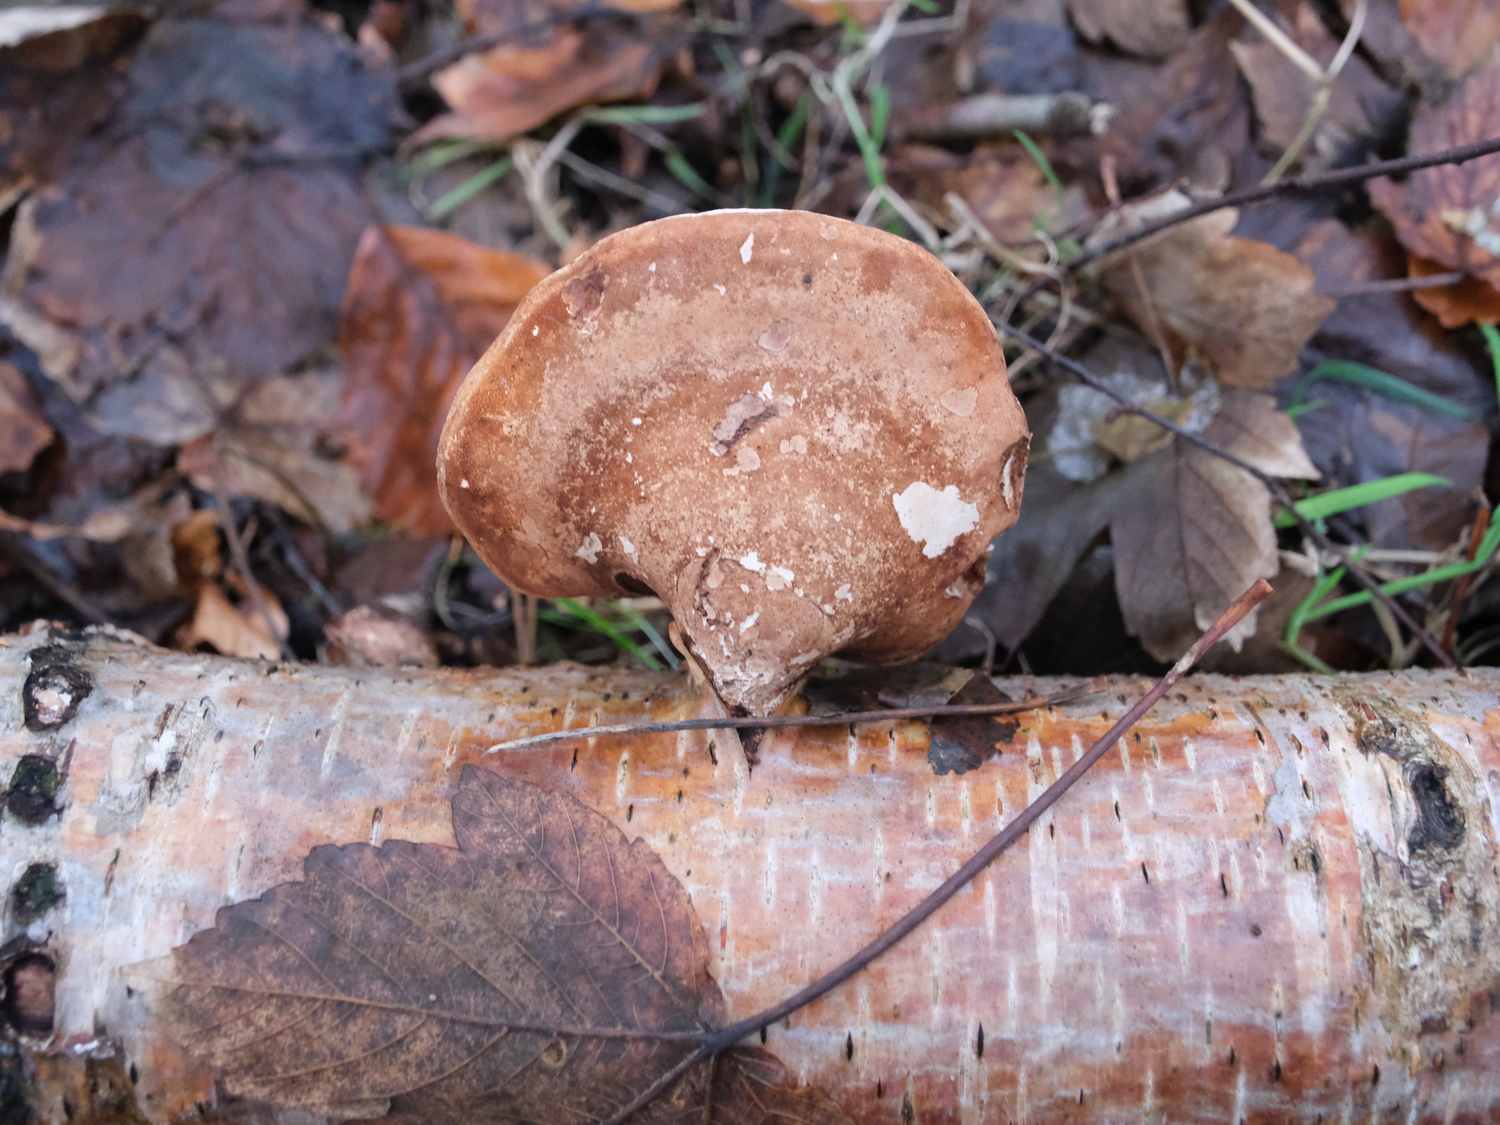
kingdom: Fungi
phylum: Basidiomycota
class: Agaricomycetes
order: Polyporales
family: Fomitopsidaceae
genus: Fomitopsis
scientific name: Fomitopsis betulina
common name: birkeporesvamp
